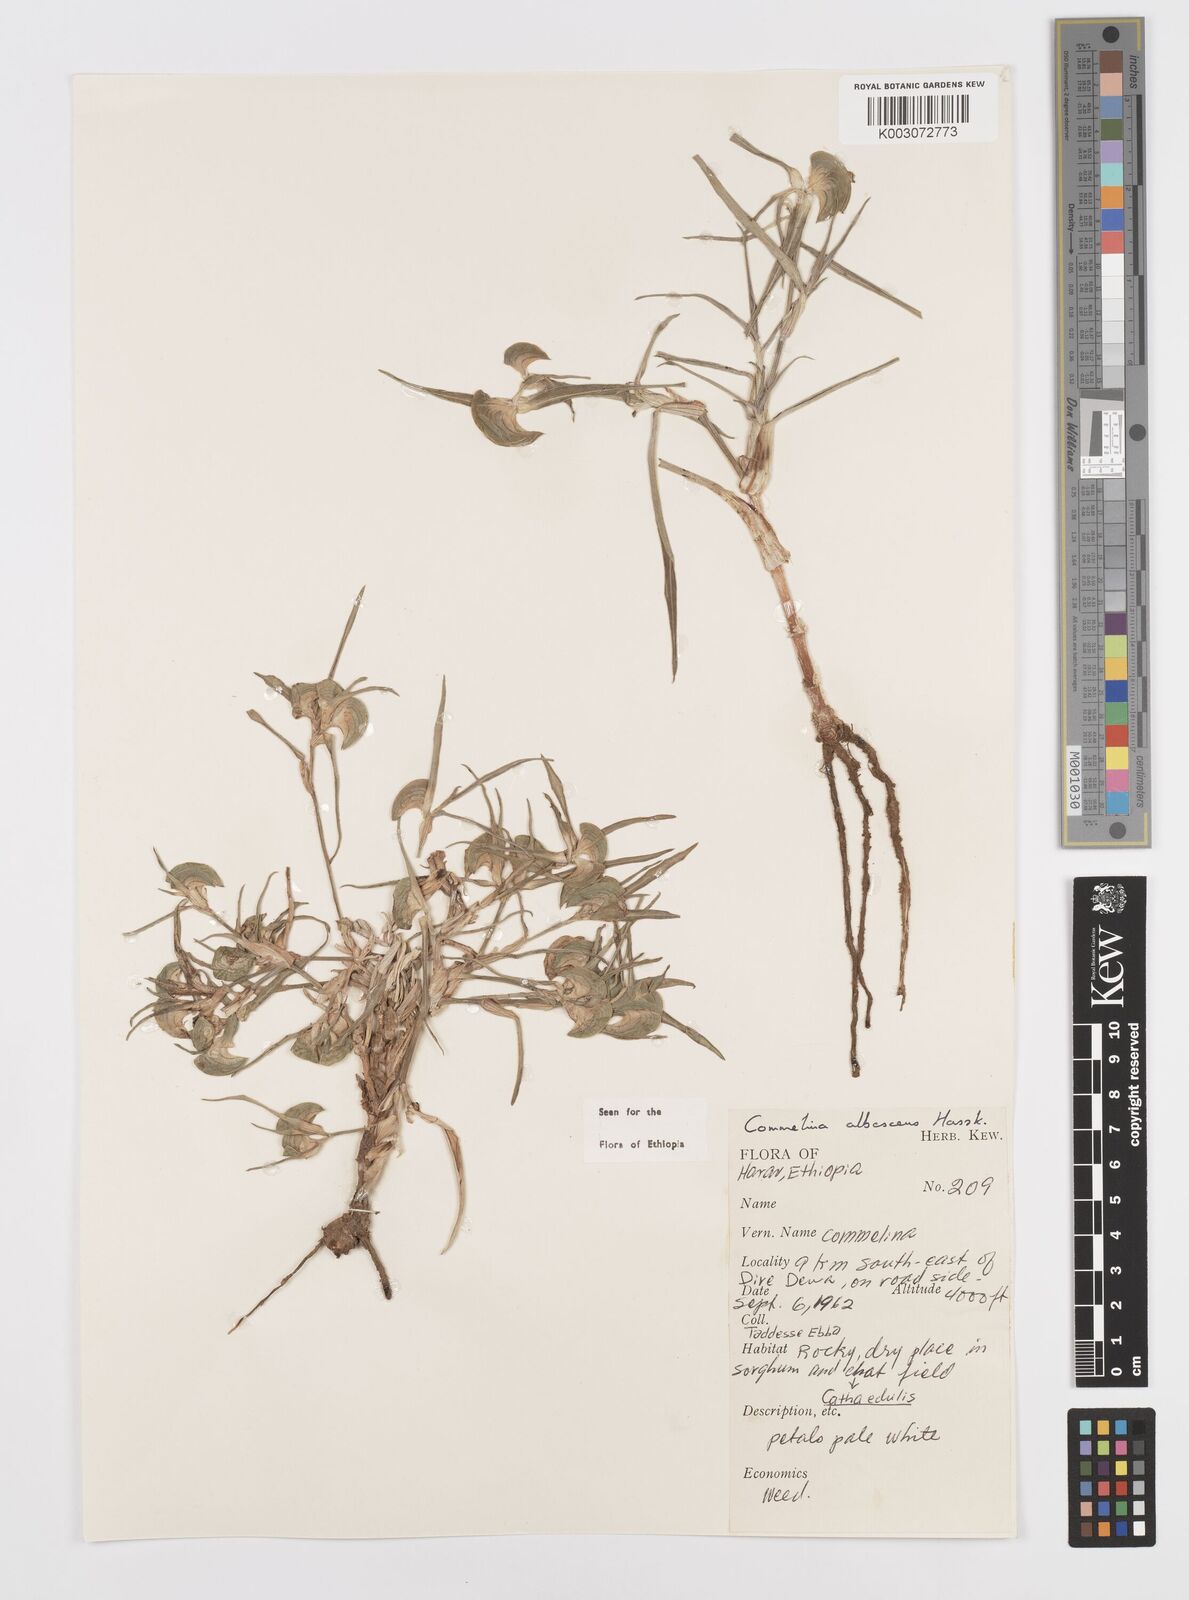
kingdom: Plantae
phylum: Tracheophyta
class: Liliopsida
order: Commelinales
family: Commelinaceae
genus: Commelina
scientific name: Commelina albescens
